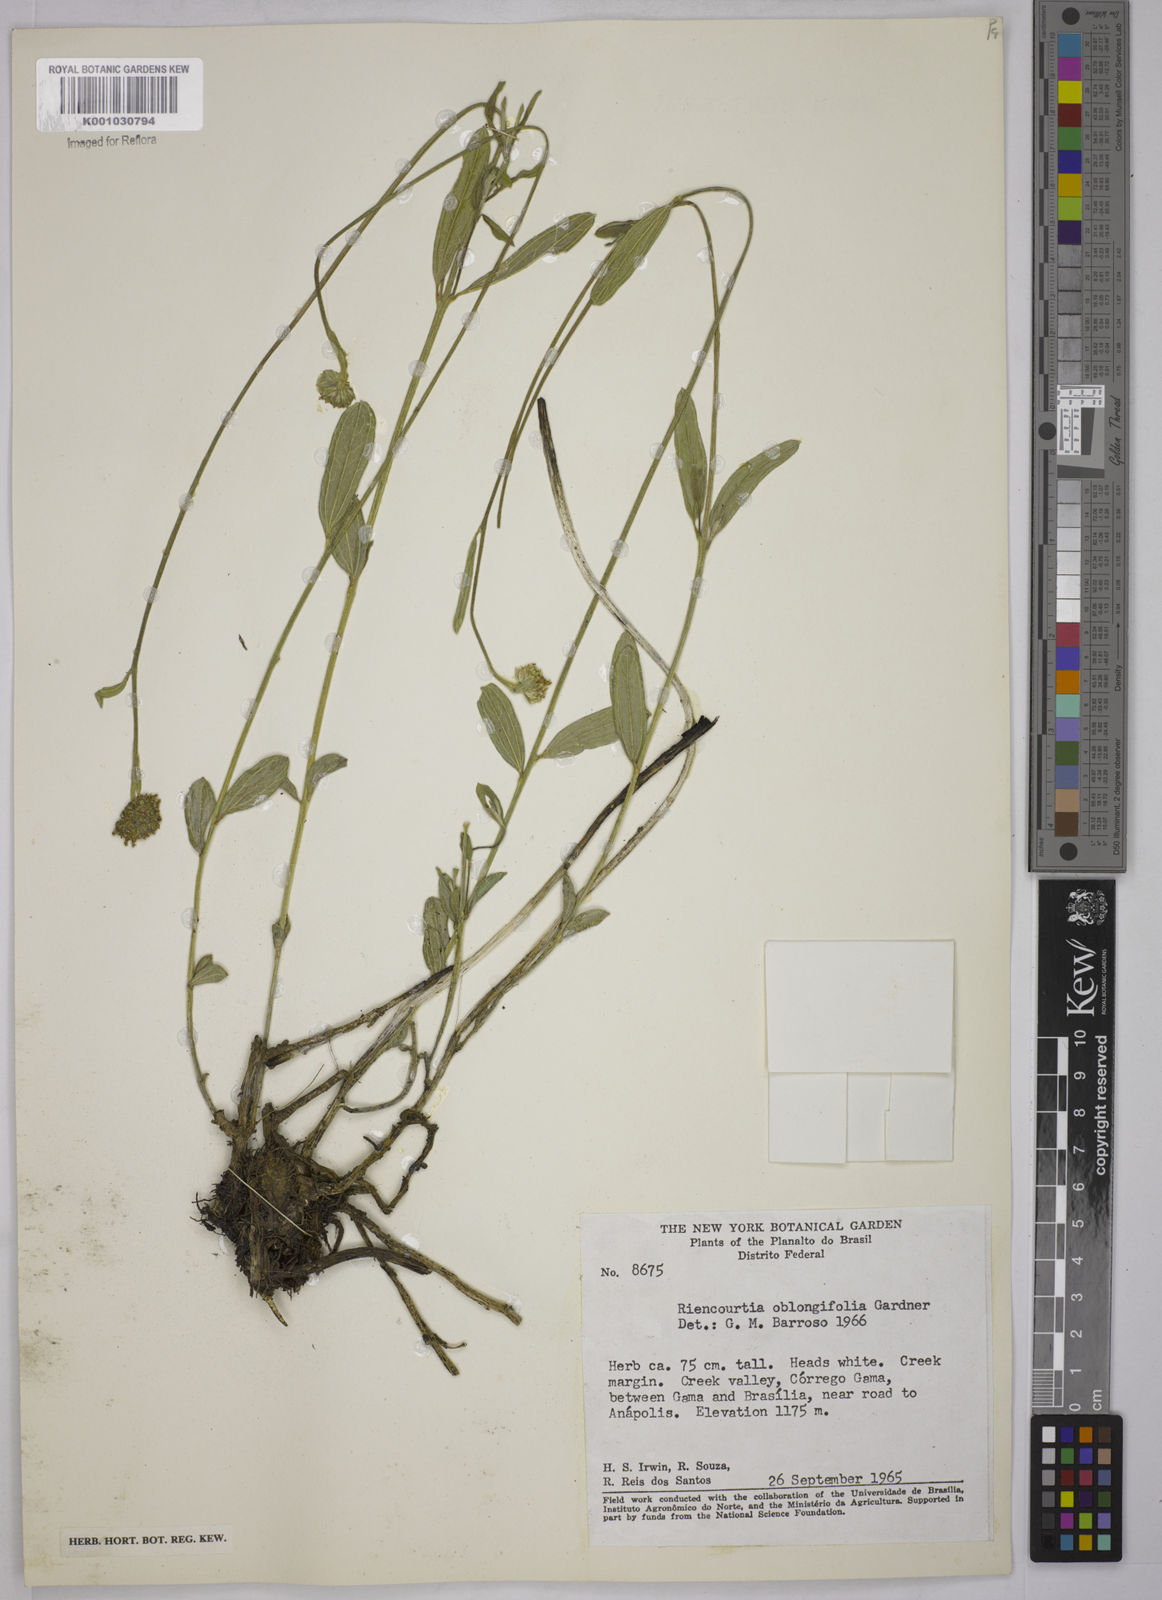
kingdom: Plantae
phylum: Tracheophyta
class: Magnoliopsida
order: Asterales
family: Asteraceae
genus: Riencourtia
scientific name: Riencourtia oblongifolia
